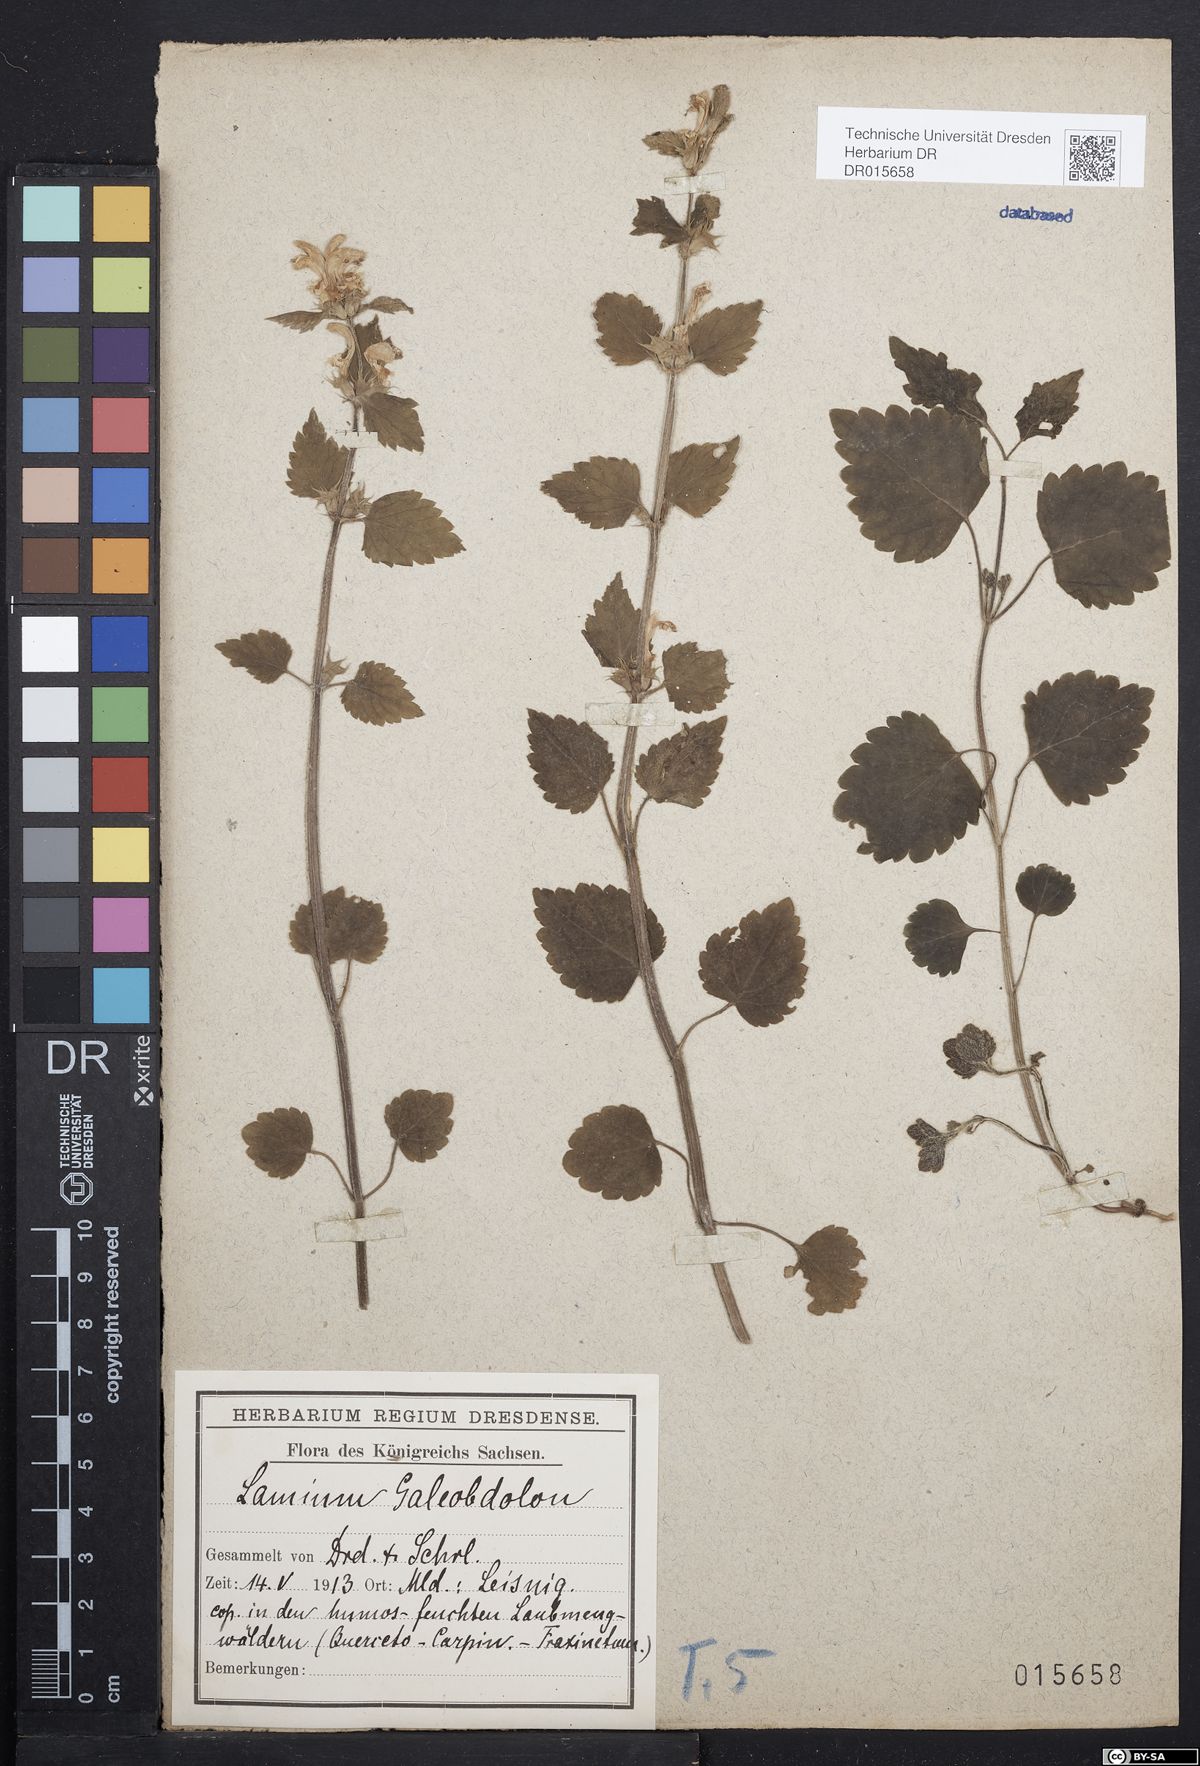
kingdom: Plantae
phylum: Tracheophyta
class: Magnoliopsida
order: Lamiales
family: Lamiaceae
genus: Lamium
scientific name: Lamium galeobdolon
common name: Yellow archangel
